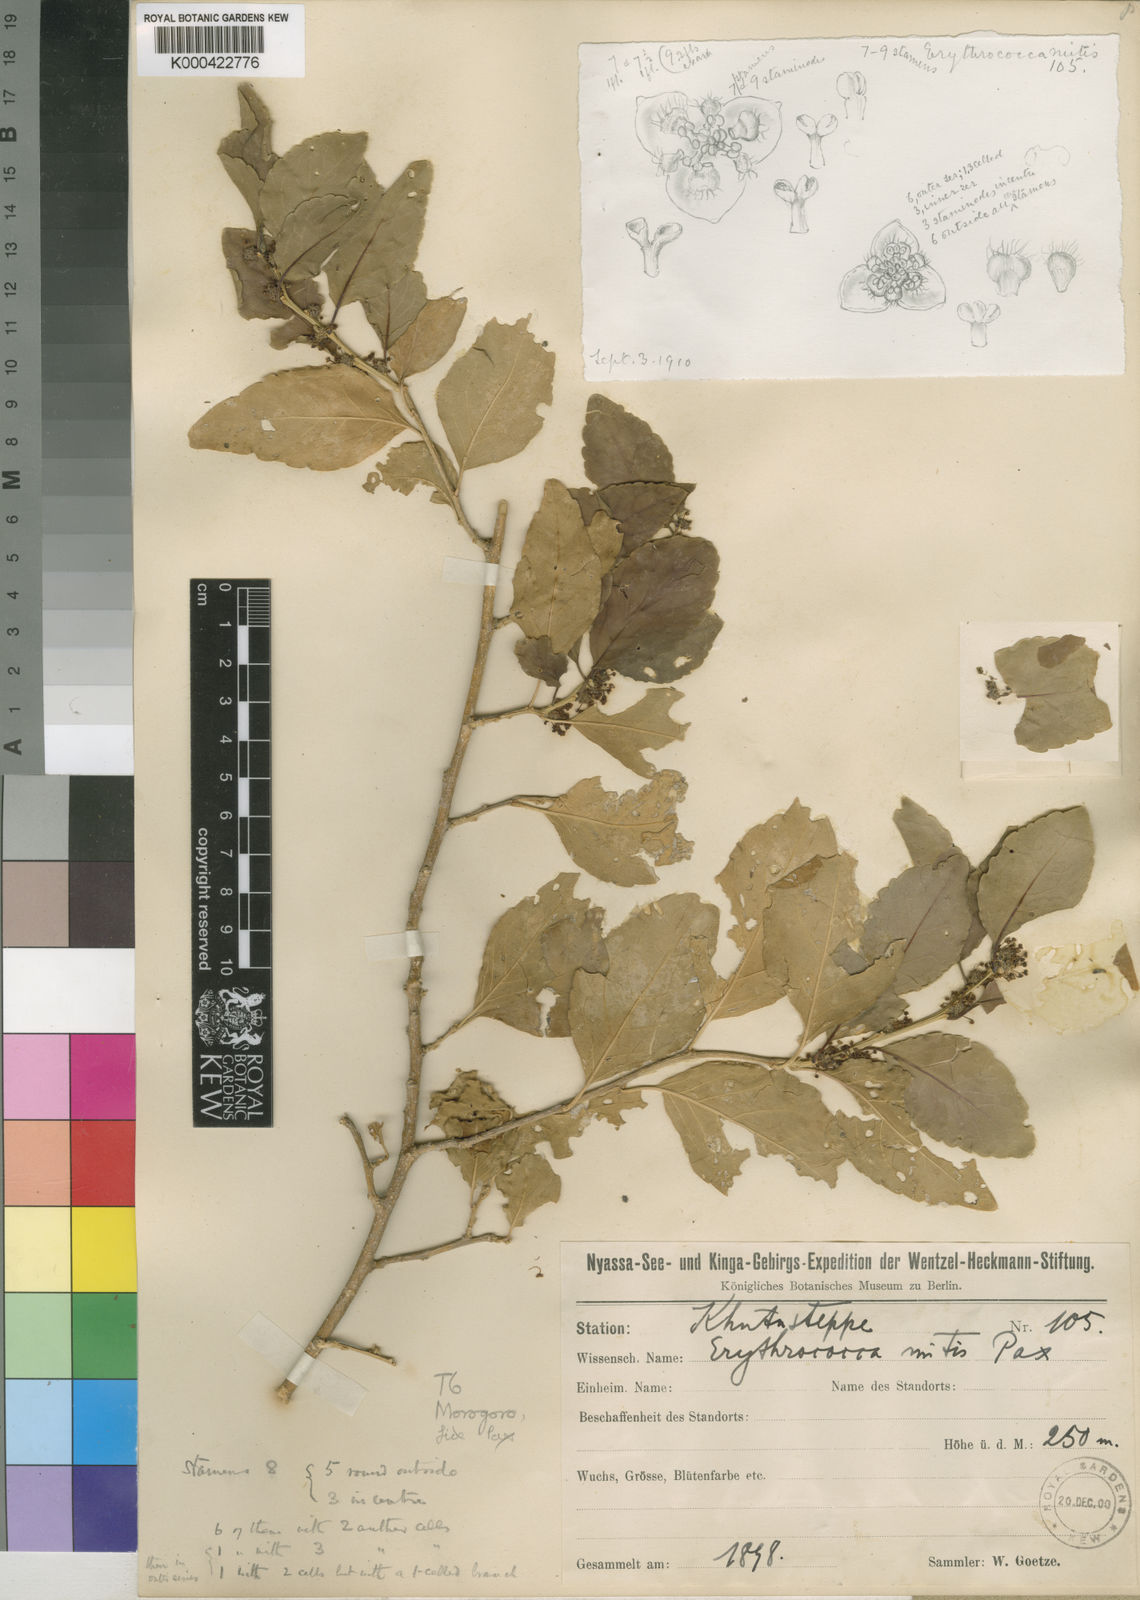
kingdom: Plantae
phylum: Tracheophyta
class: Magnoliopsida
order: Malpighiales
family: Euphorbiaceae
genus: Erythrococca
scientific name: Erythrococca
